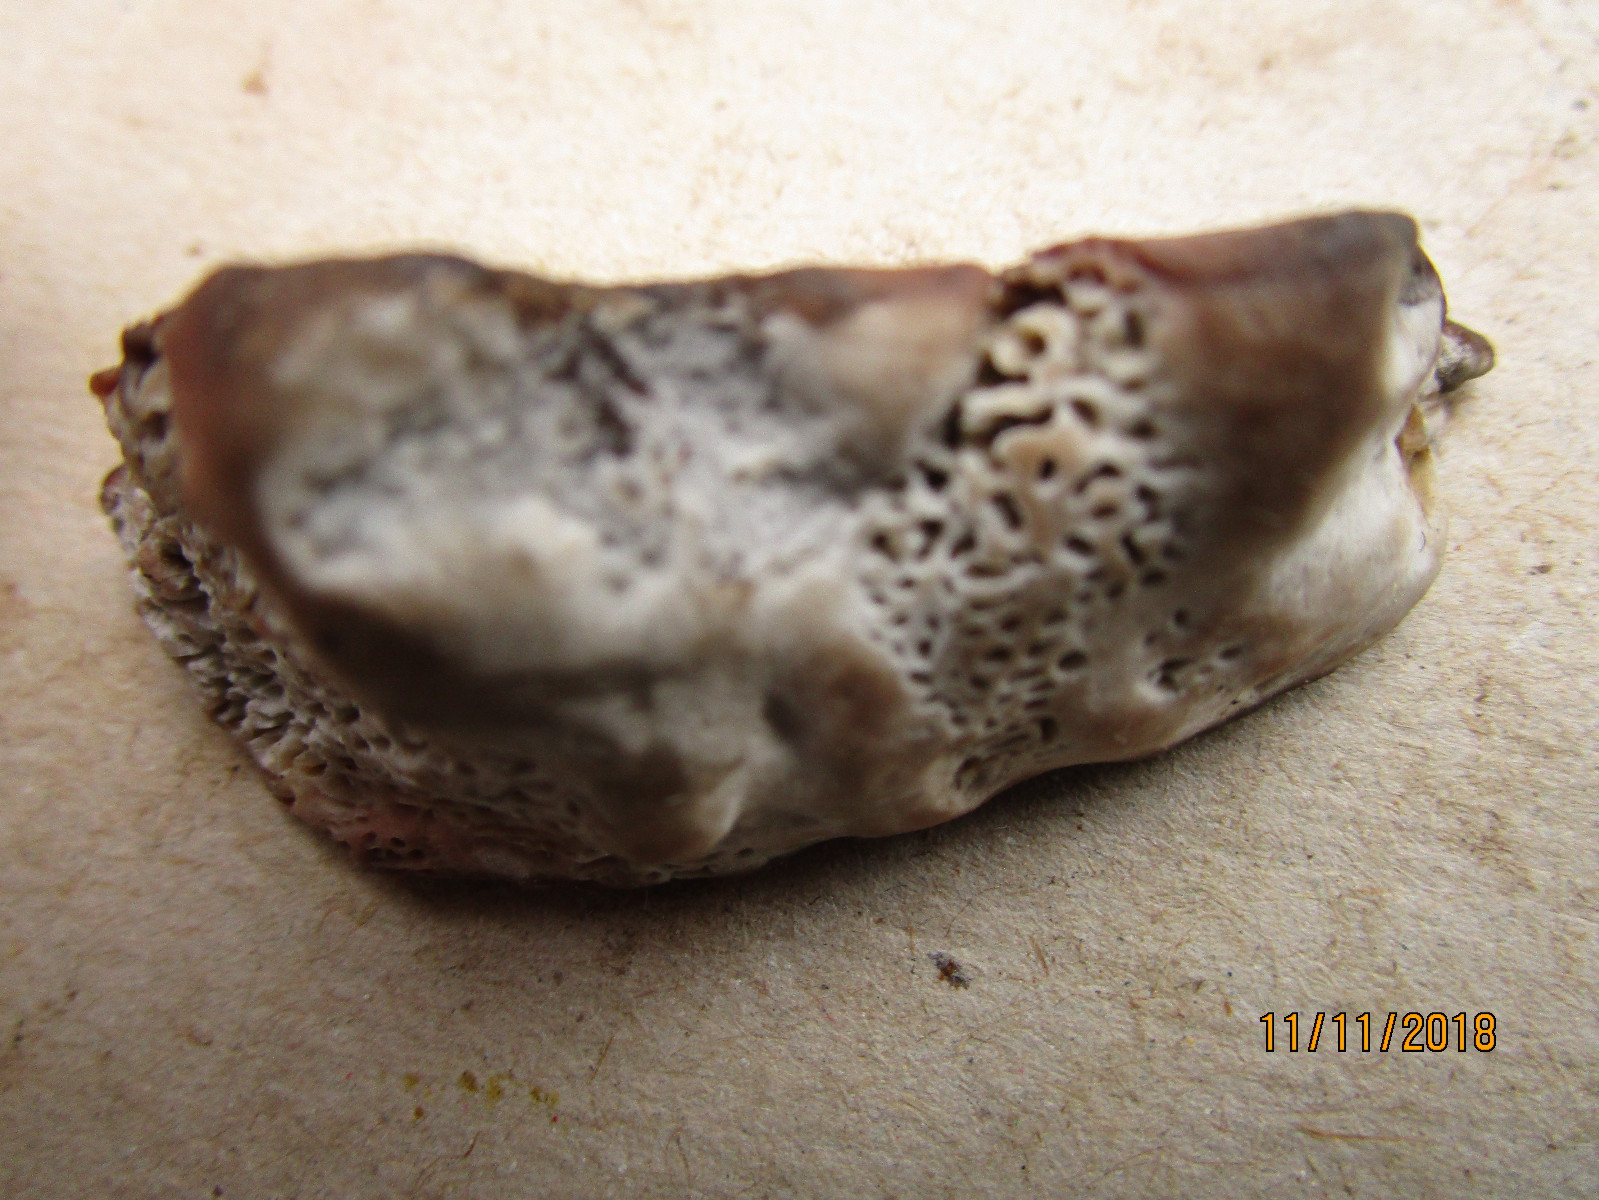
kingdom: Fungi
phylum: Basidiomycota
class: Agaricomycetes
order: Polyporales
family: Polyporaceae
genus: Daedaleopsis
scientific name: Daedaleopsis confragosa
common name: rødmende læderporesvamp
